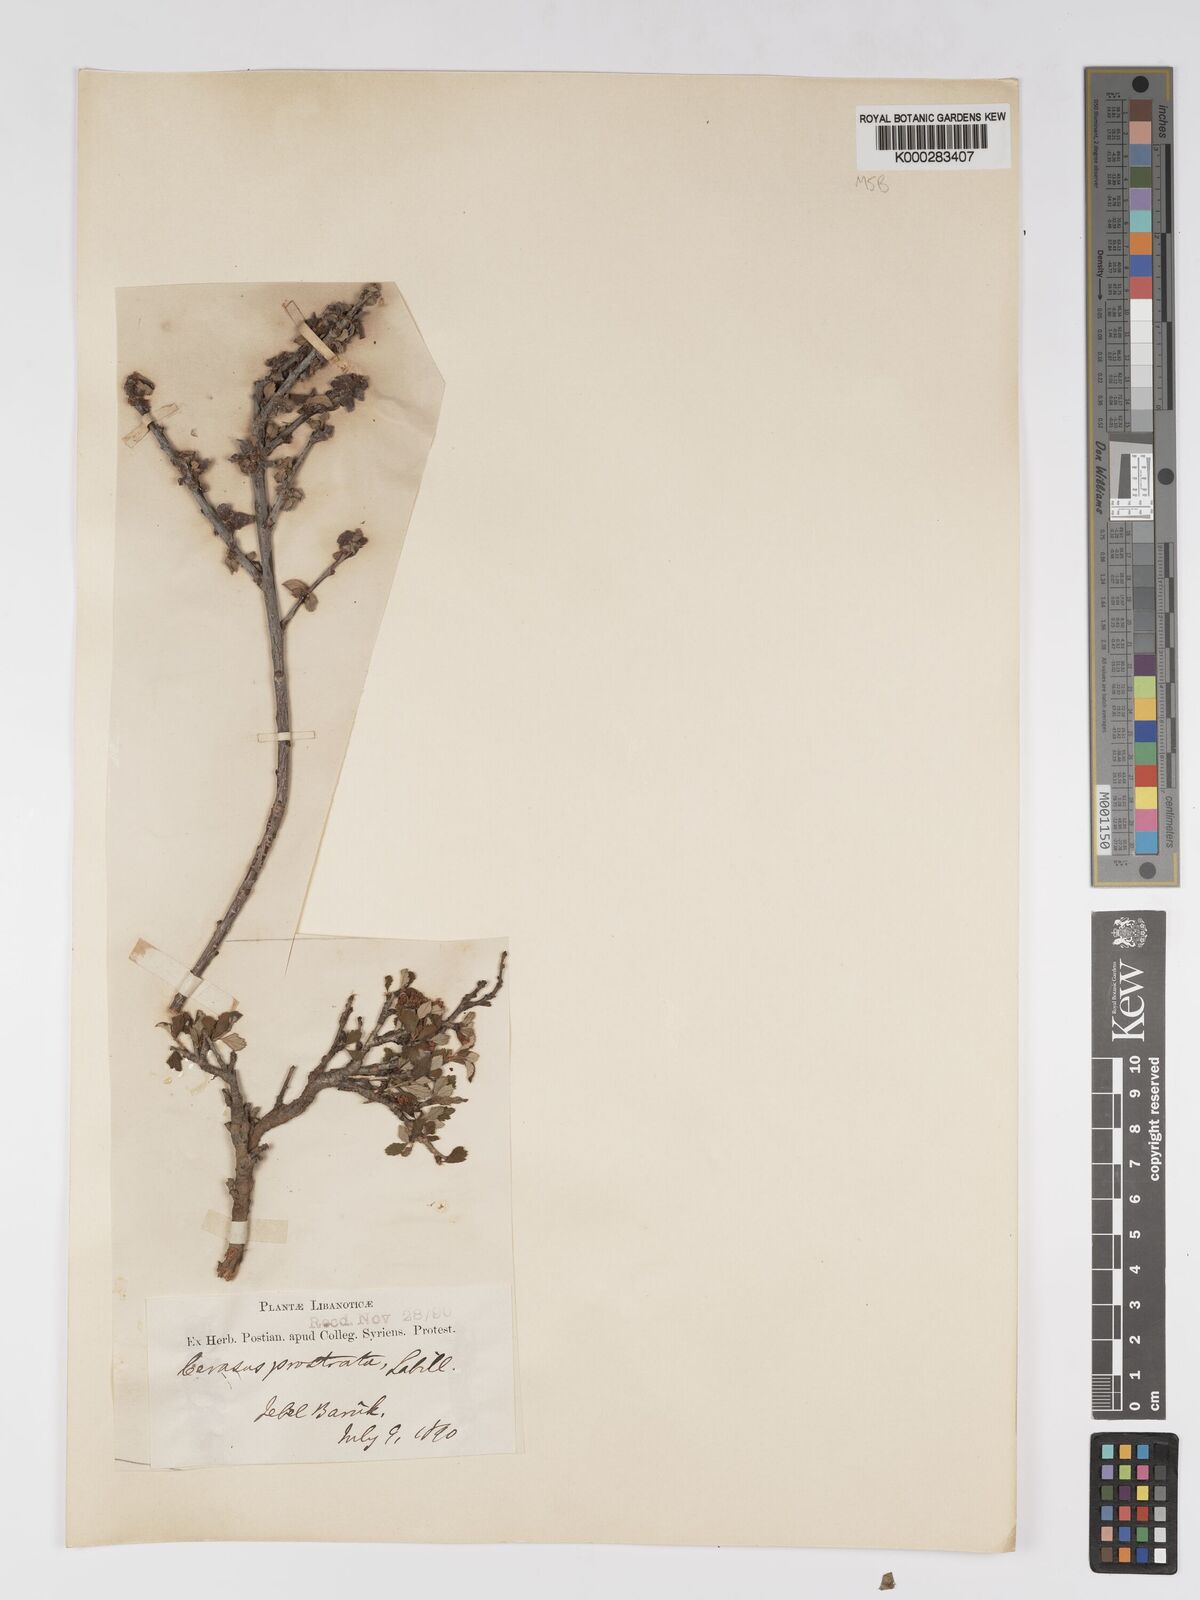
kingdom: Plantae
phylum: Tracheophyta
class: Magnoliopsida
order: Rosales
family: Rosaceae
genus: Prunus
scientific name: Prunus prostrata
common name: Mountain cherry
